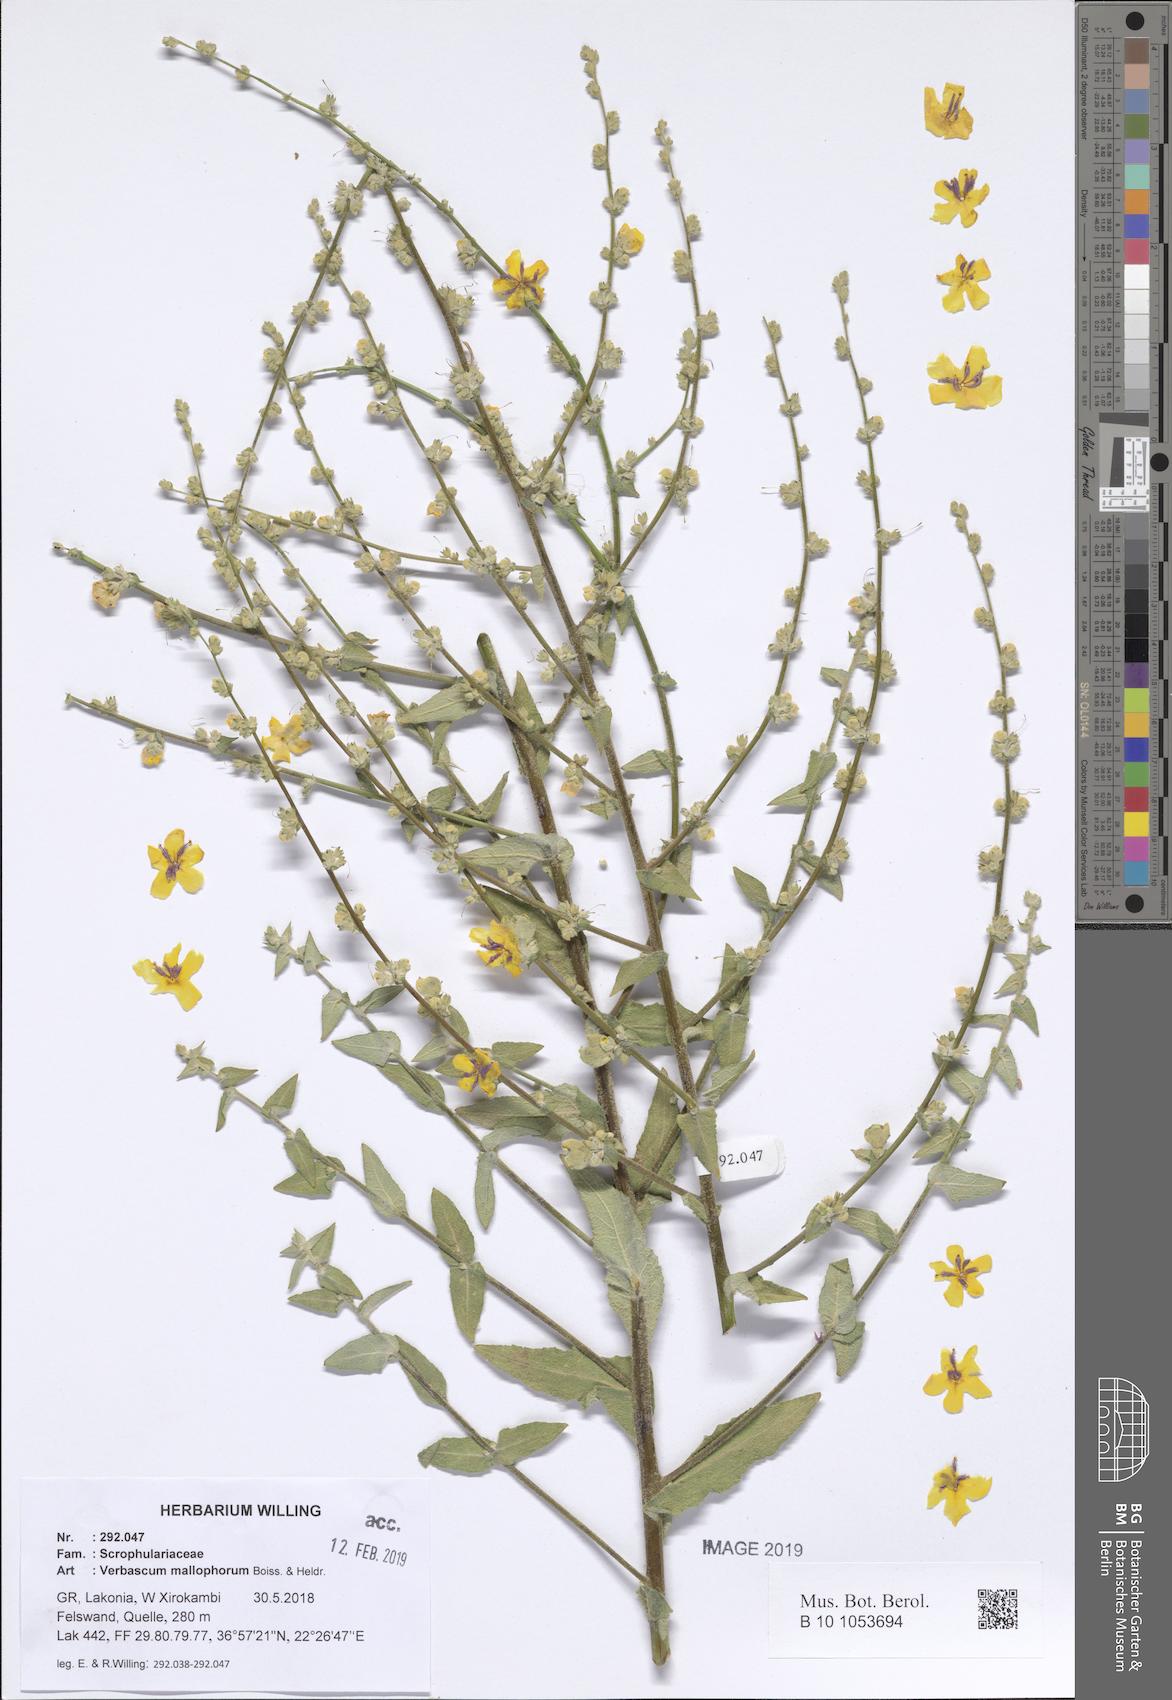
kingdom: Plantae
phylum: Tracheophyta
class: Magnoliopsida
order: Lamiales
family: Scrophulariaceae
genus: Verbascum
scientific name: Verbascum mallophorum
